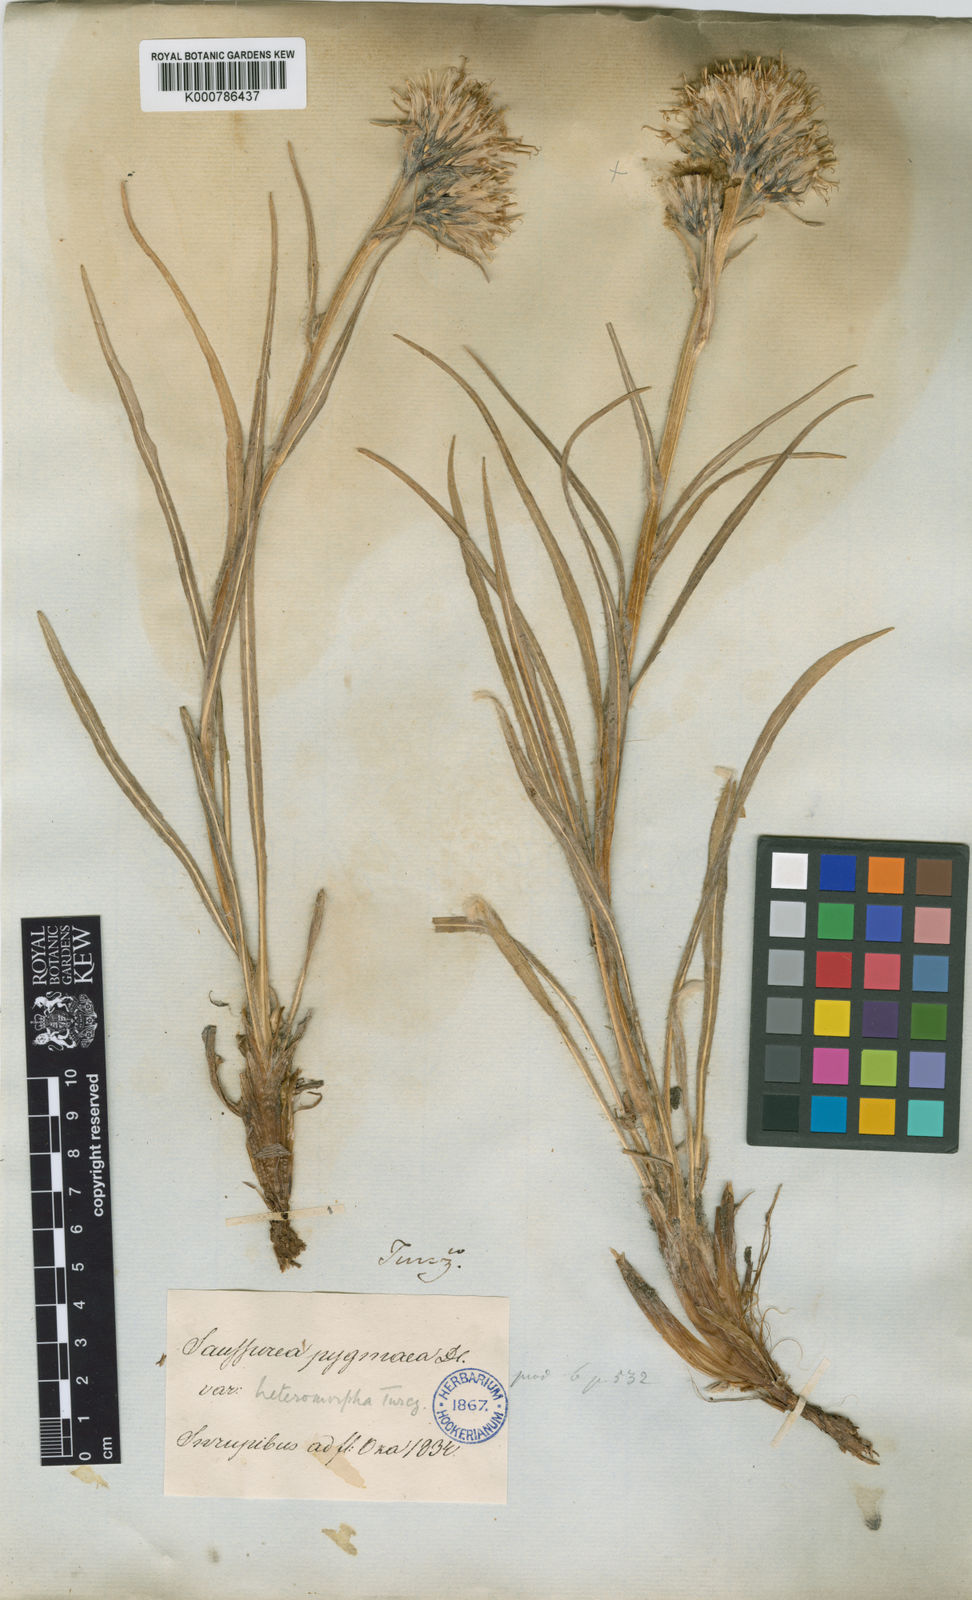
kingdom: Plantae
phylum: Tracheophyta
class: Magnoliopsida
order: Asterales
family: Asteraceae
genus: Saussurea
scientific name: Saussurea schanginiana
